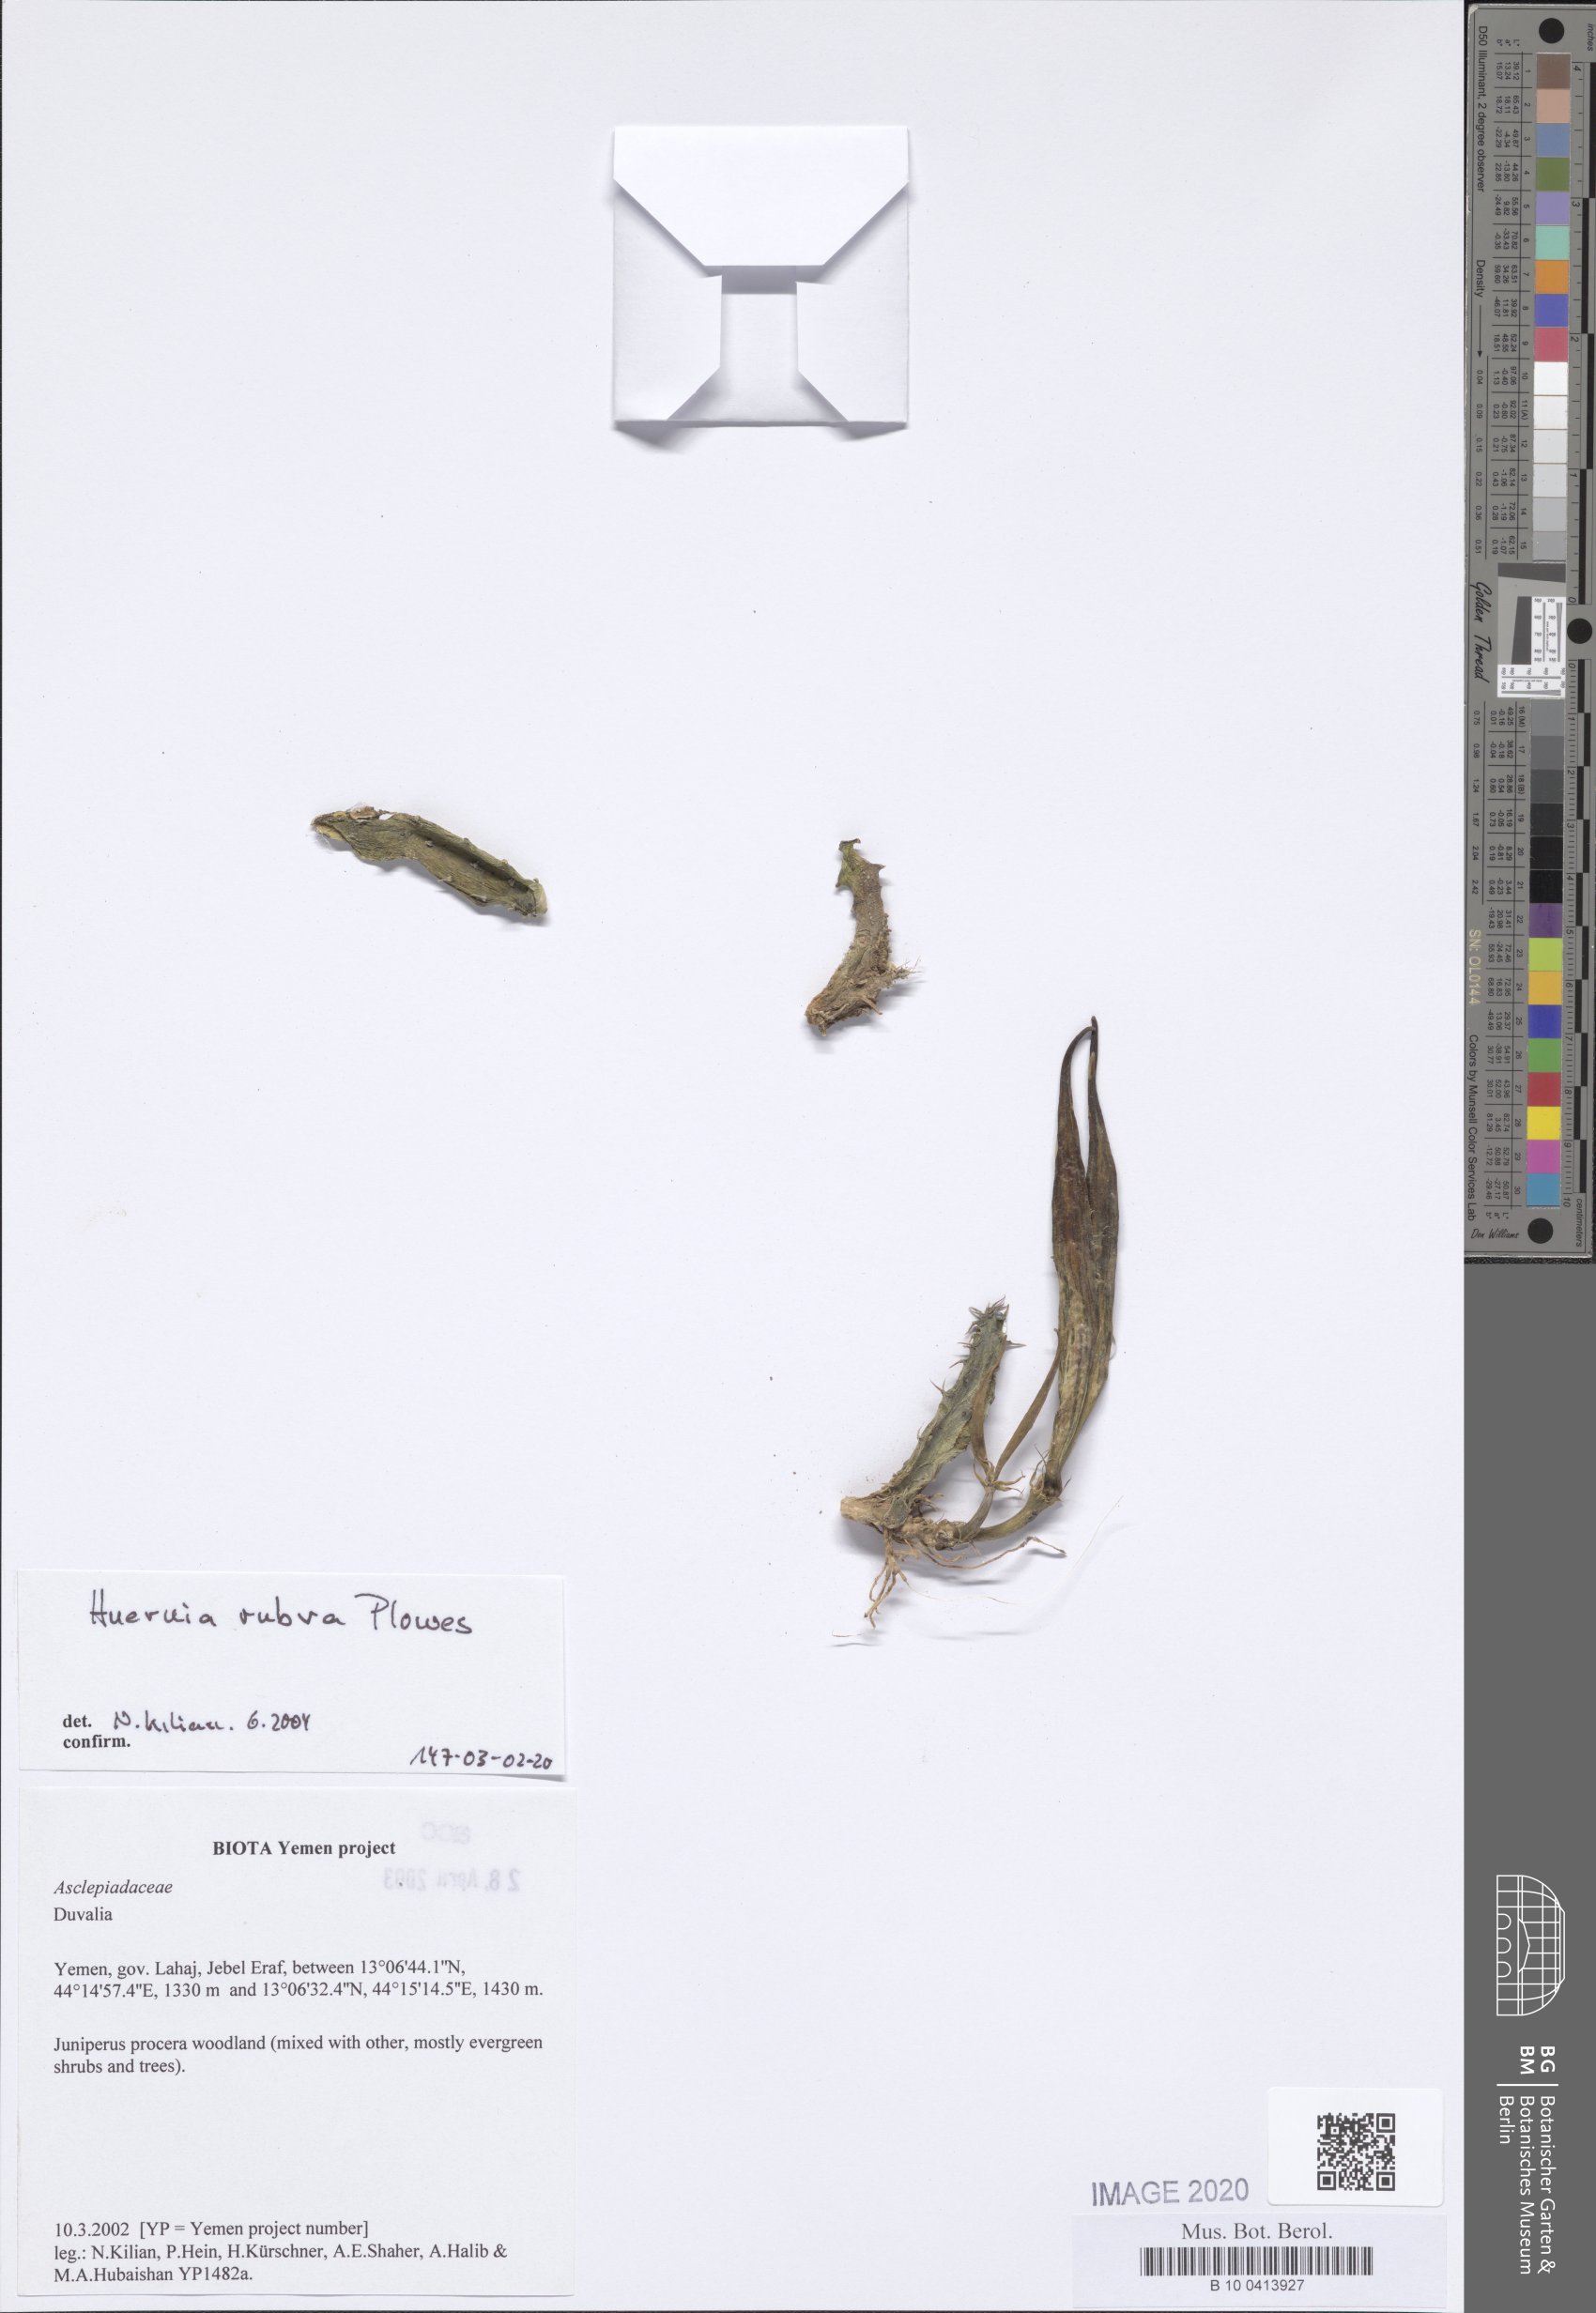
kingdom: Plantae
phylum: Tracheophyta
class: Magnoliopsida
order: Gentianales
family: Apocynaceae
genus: Ceropegia
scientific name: Ceropegia hadramautica
